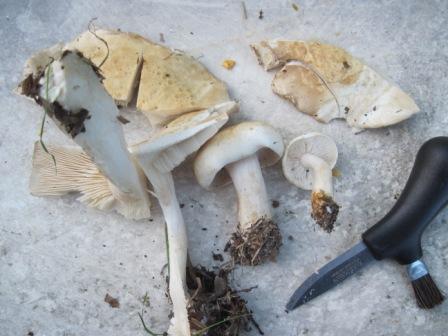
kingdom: Fungi
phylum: Basidiomycota
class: Agaricomycetes
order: Agaricales
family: Tricholomataceae
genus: Tricholoma
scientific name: Tricholoma stiparophyllum
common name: hvid ridderhat
